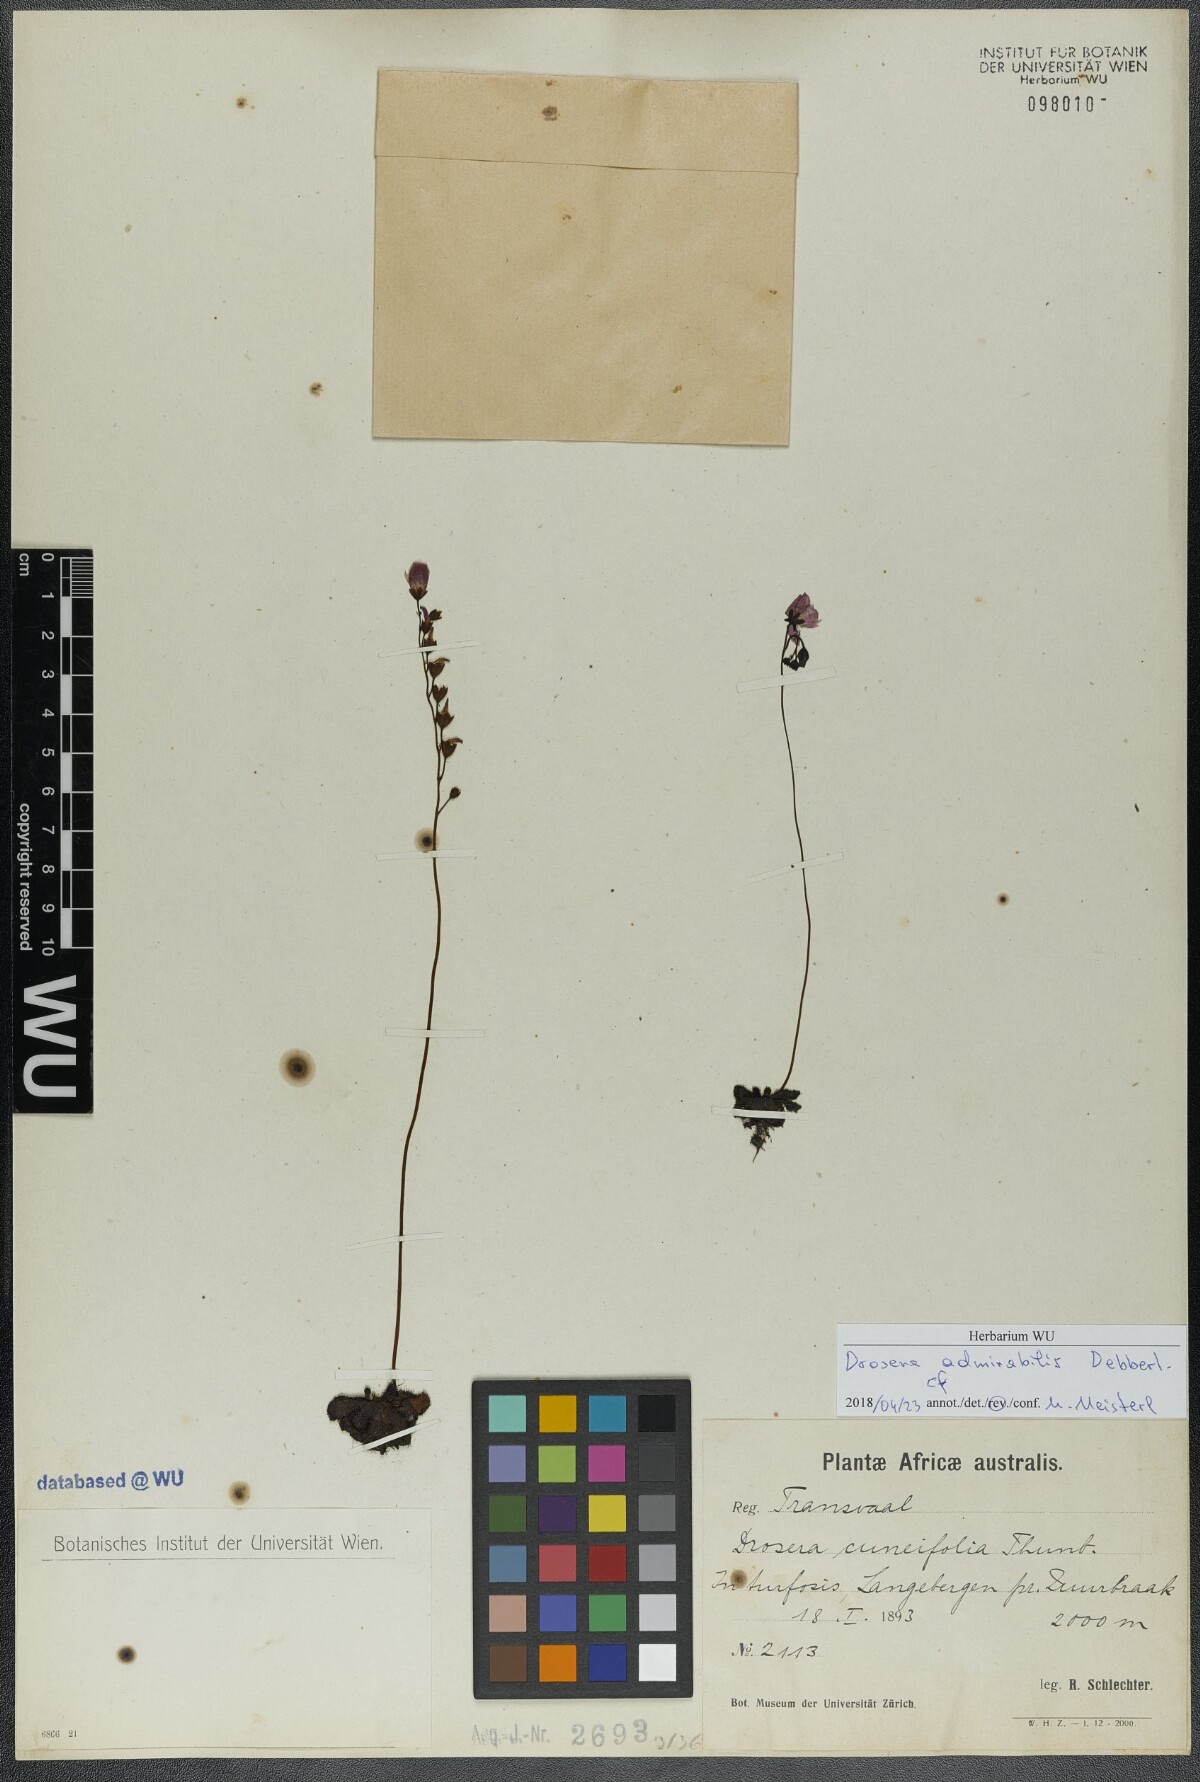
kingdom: Plantae
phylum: Tracheophyta
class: Magnoliopsida
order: Caryophyllales
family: Droseraceae
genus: Drosera
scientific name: Drosera cuneifolia
